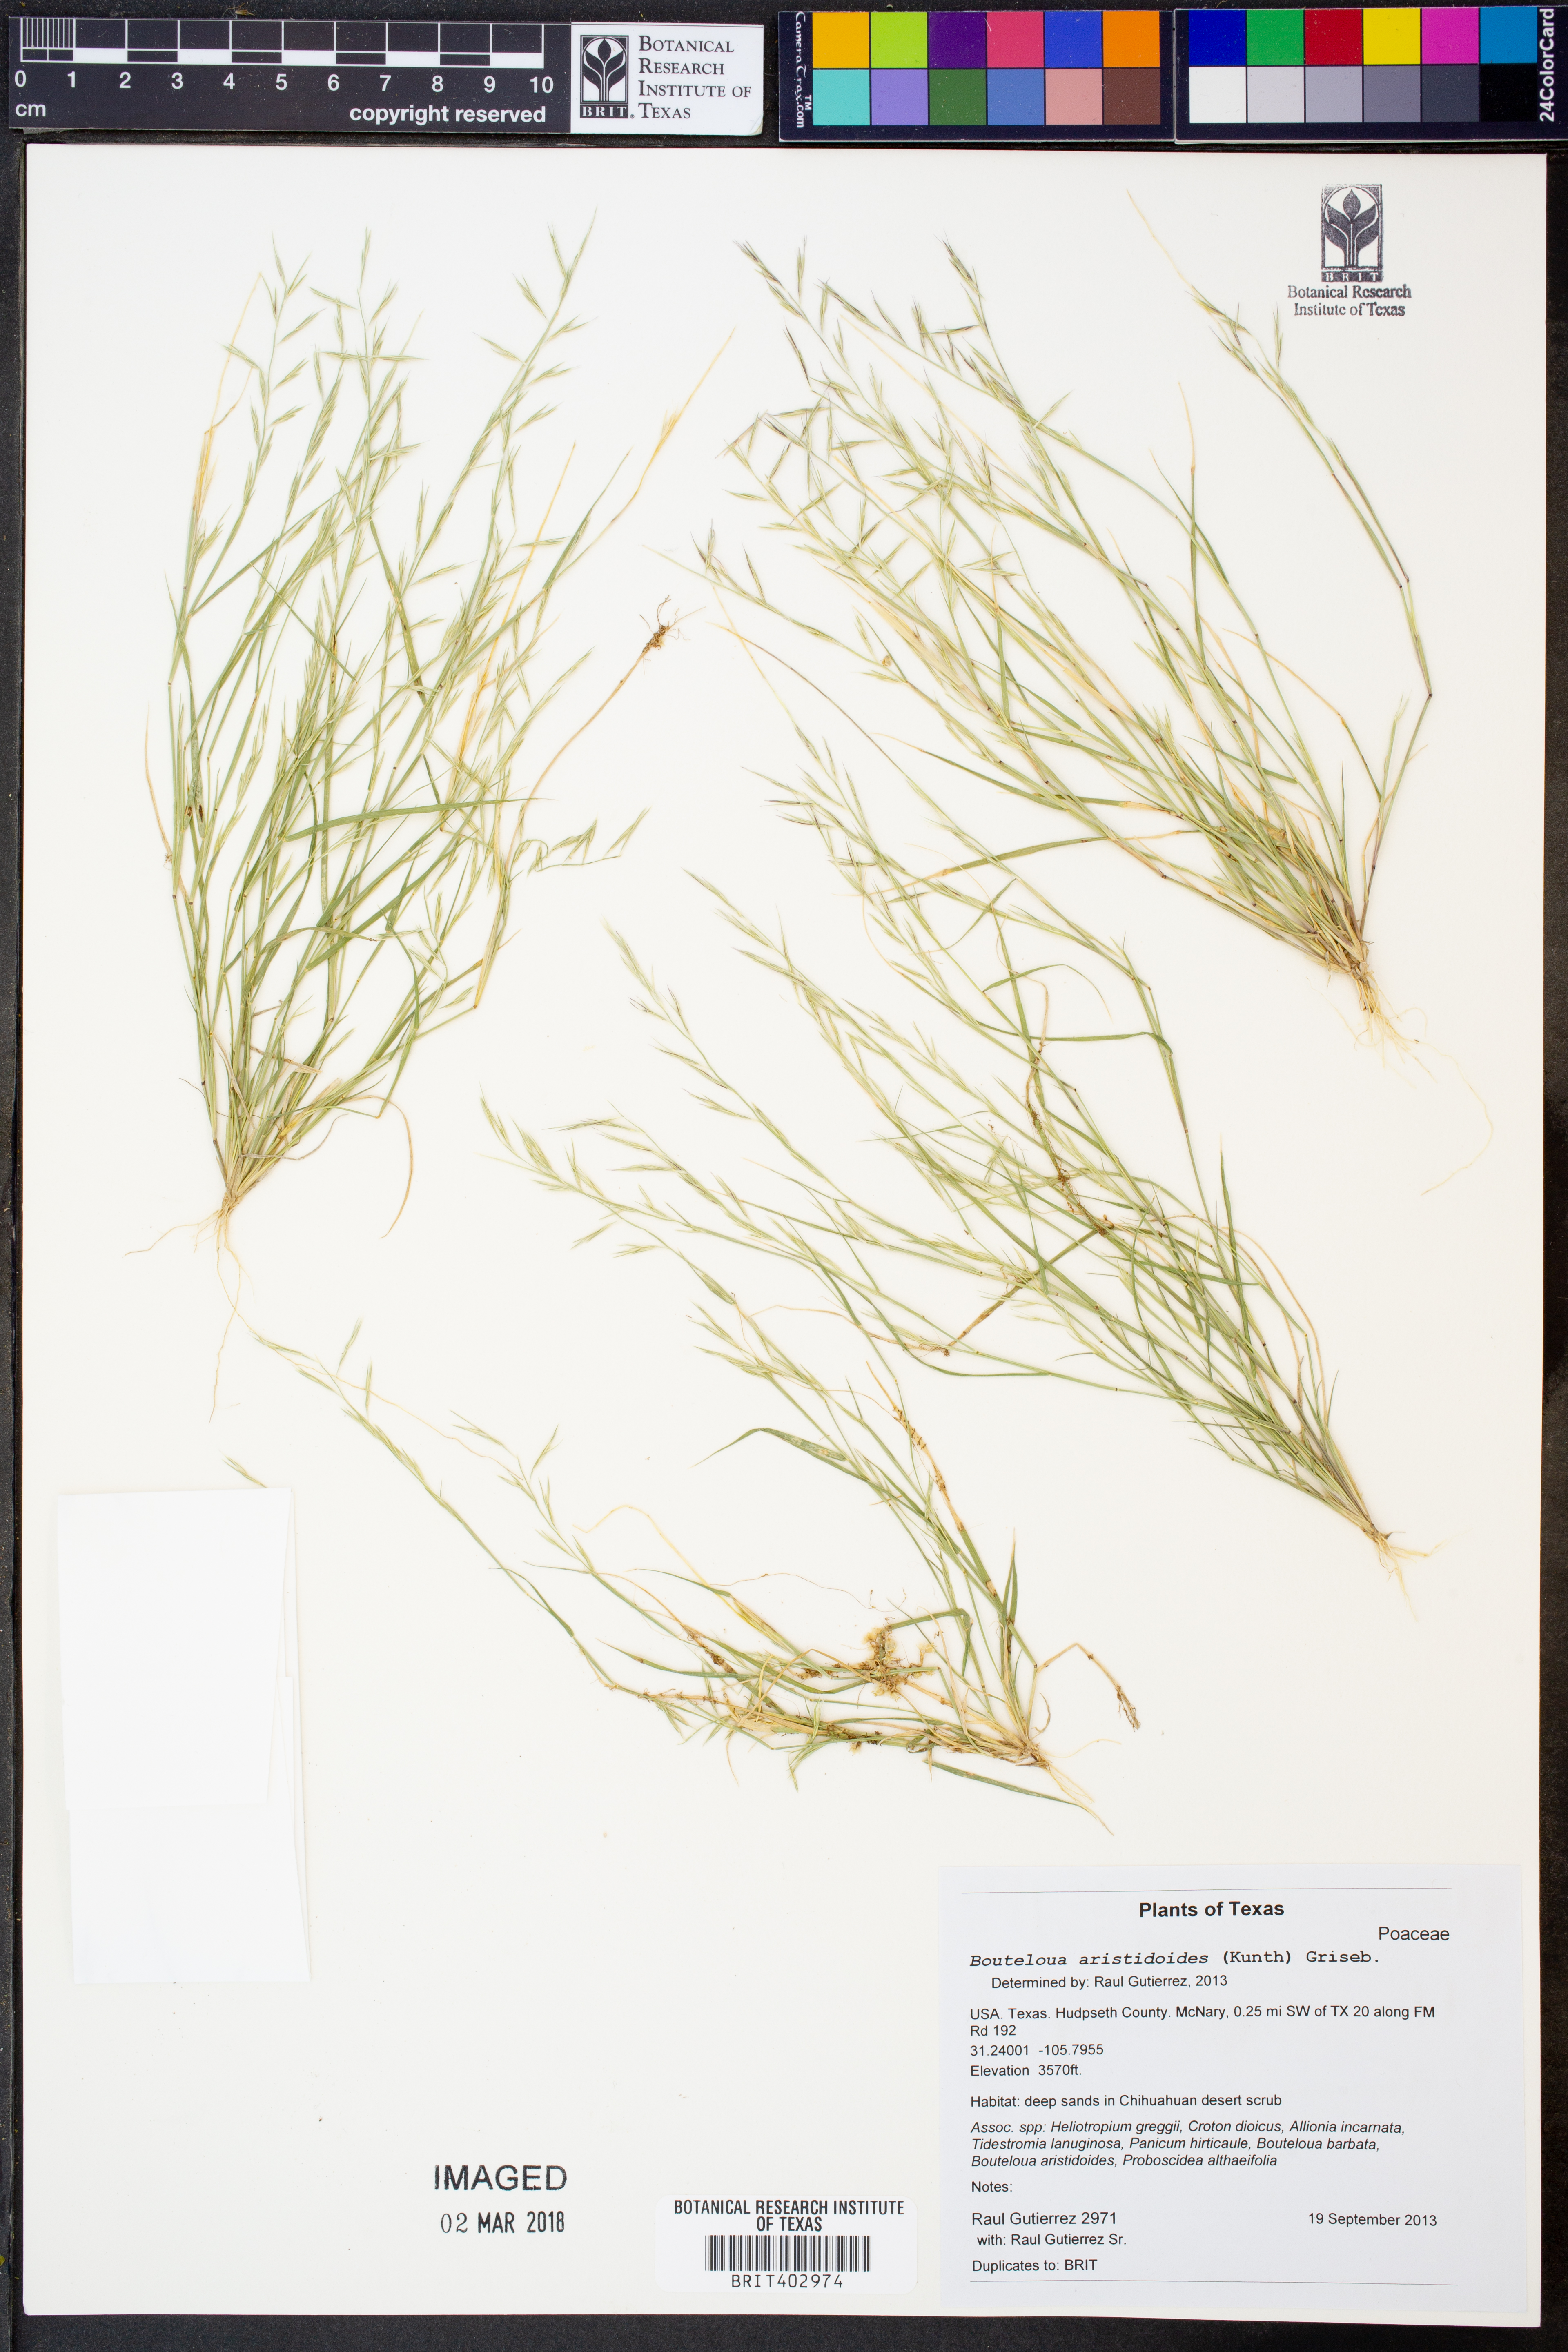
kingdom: Plantae
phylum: Tracheophyta
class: Liliopsida
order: Poales
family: Poaceae
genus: Bouteloua
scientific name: Bouteloua aristidoides
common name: Needle grama
